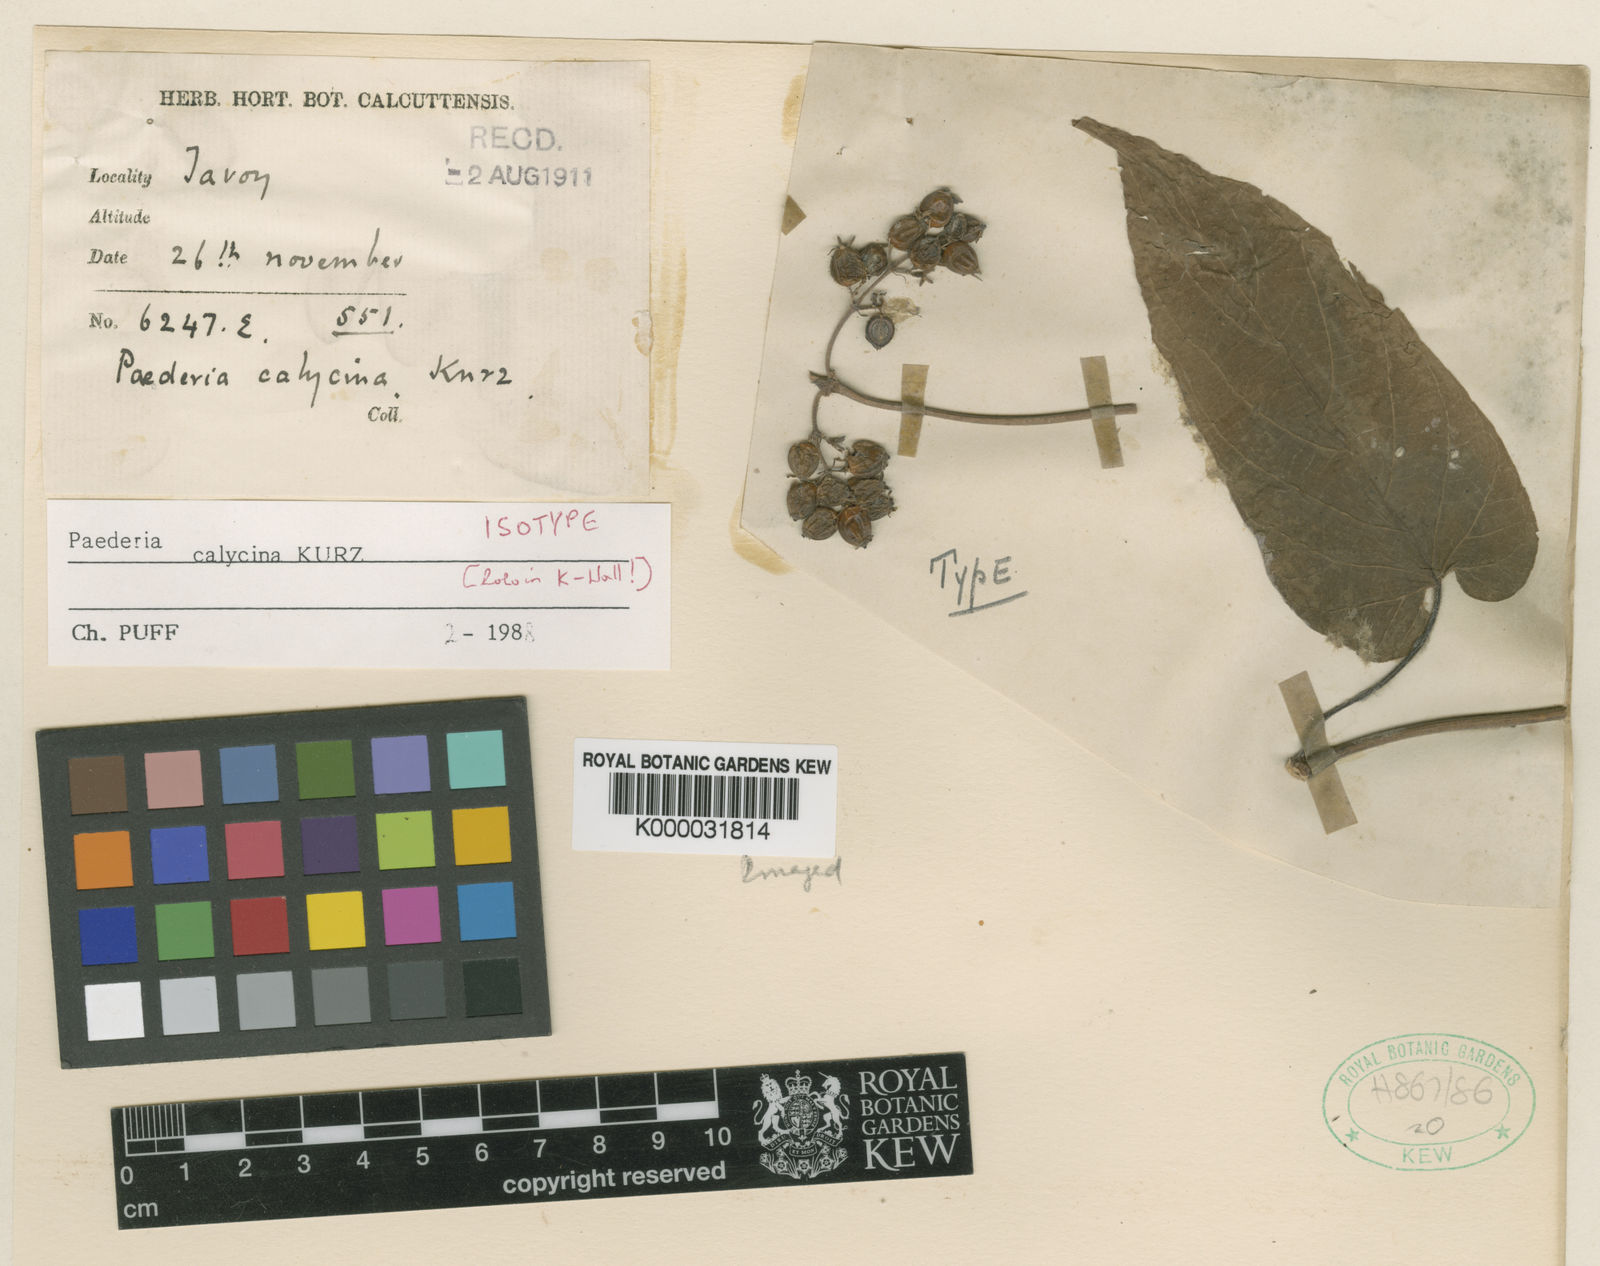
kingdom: Plantae
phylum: Tracheophyta
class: Magnoliopsida
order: Gentianales
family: Rubiaceae
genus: Paederia
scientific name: Paederia calycina
